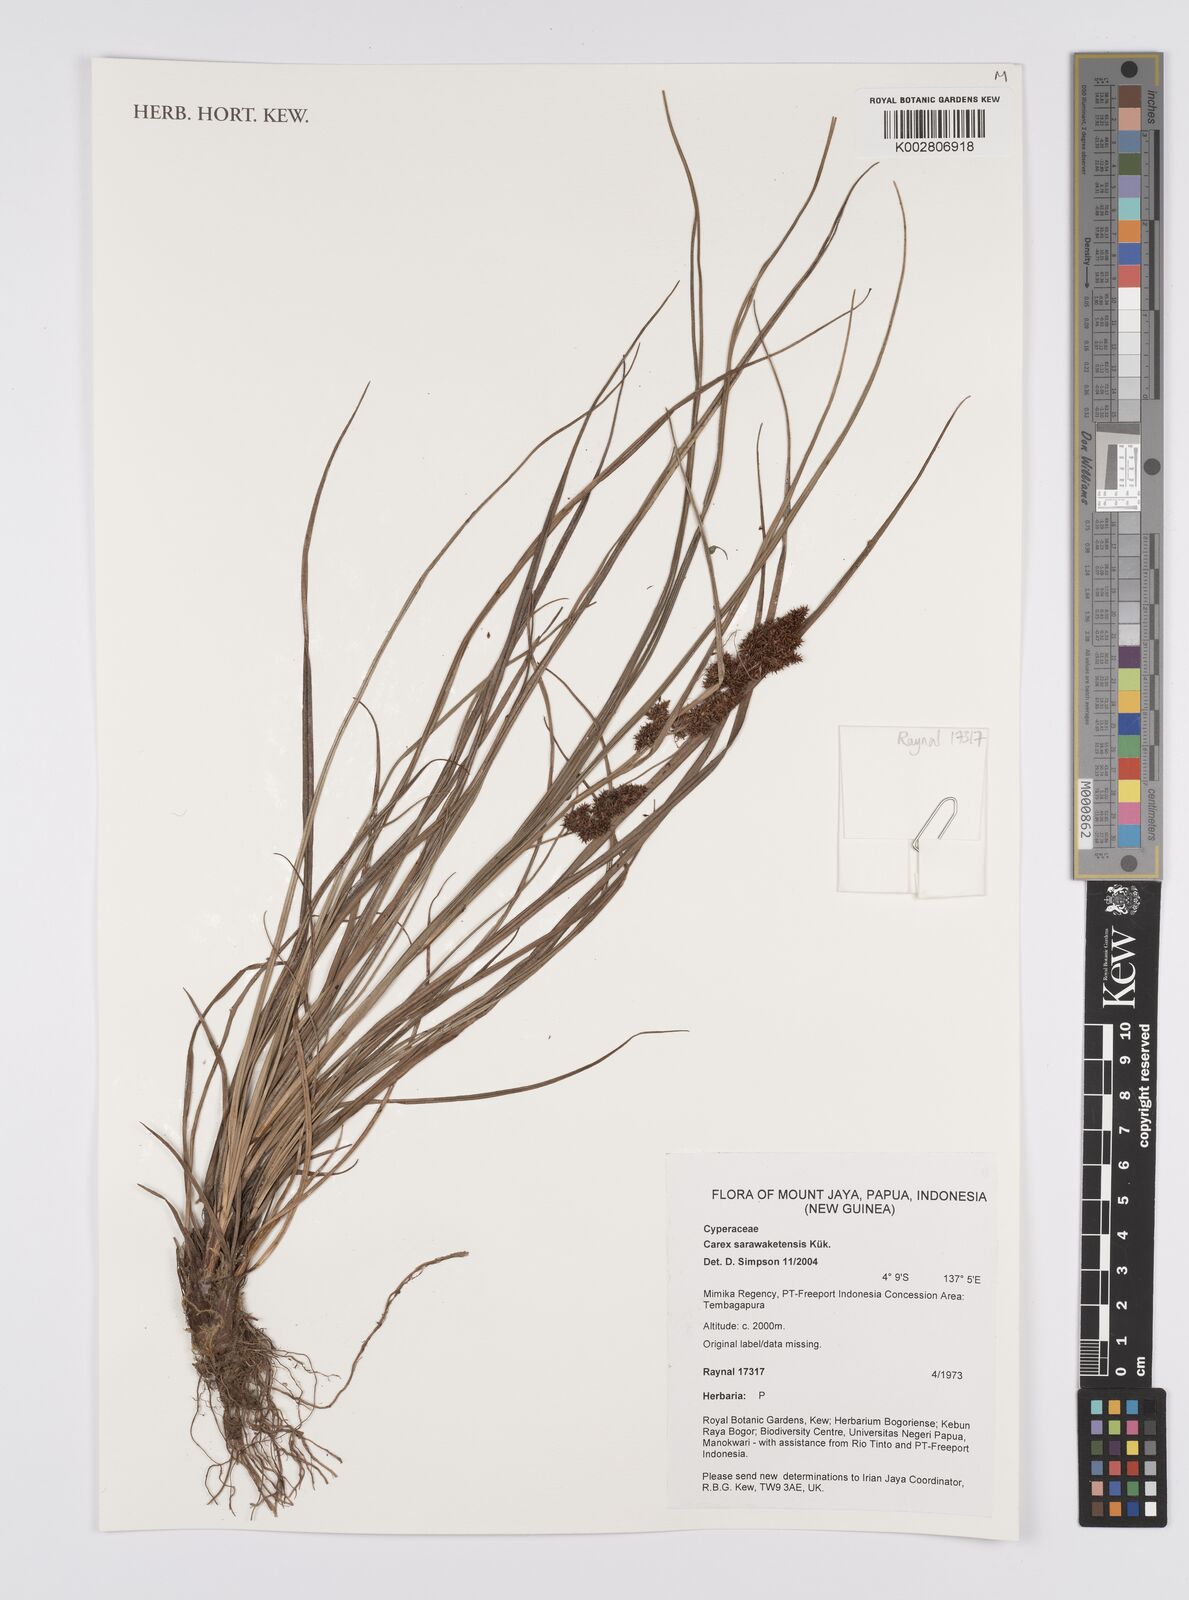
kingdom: Plantae
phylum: Tracheophyta
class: Liliopsida
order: Poales
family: Cyperaceae
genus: Carex
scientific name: Carex sarawaketensis
